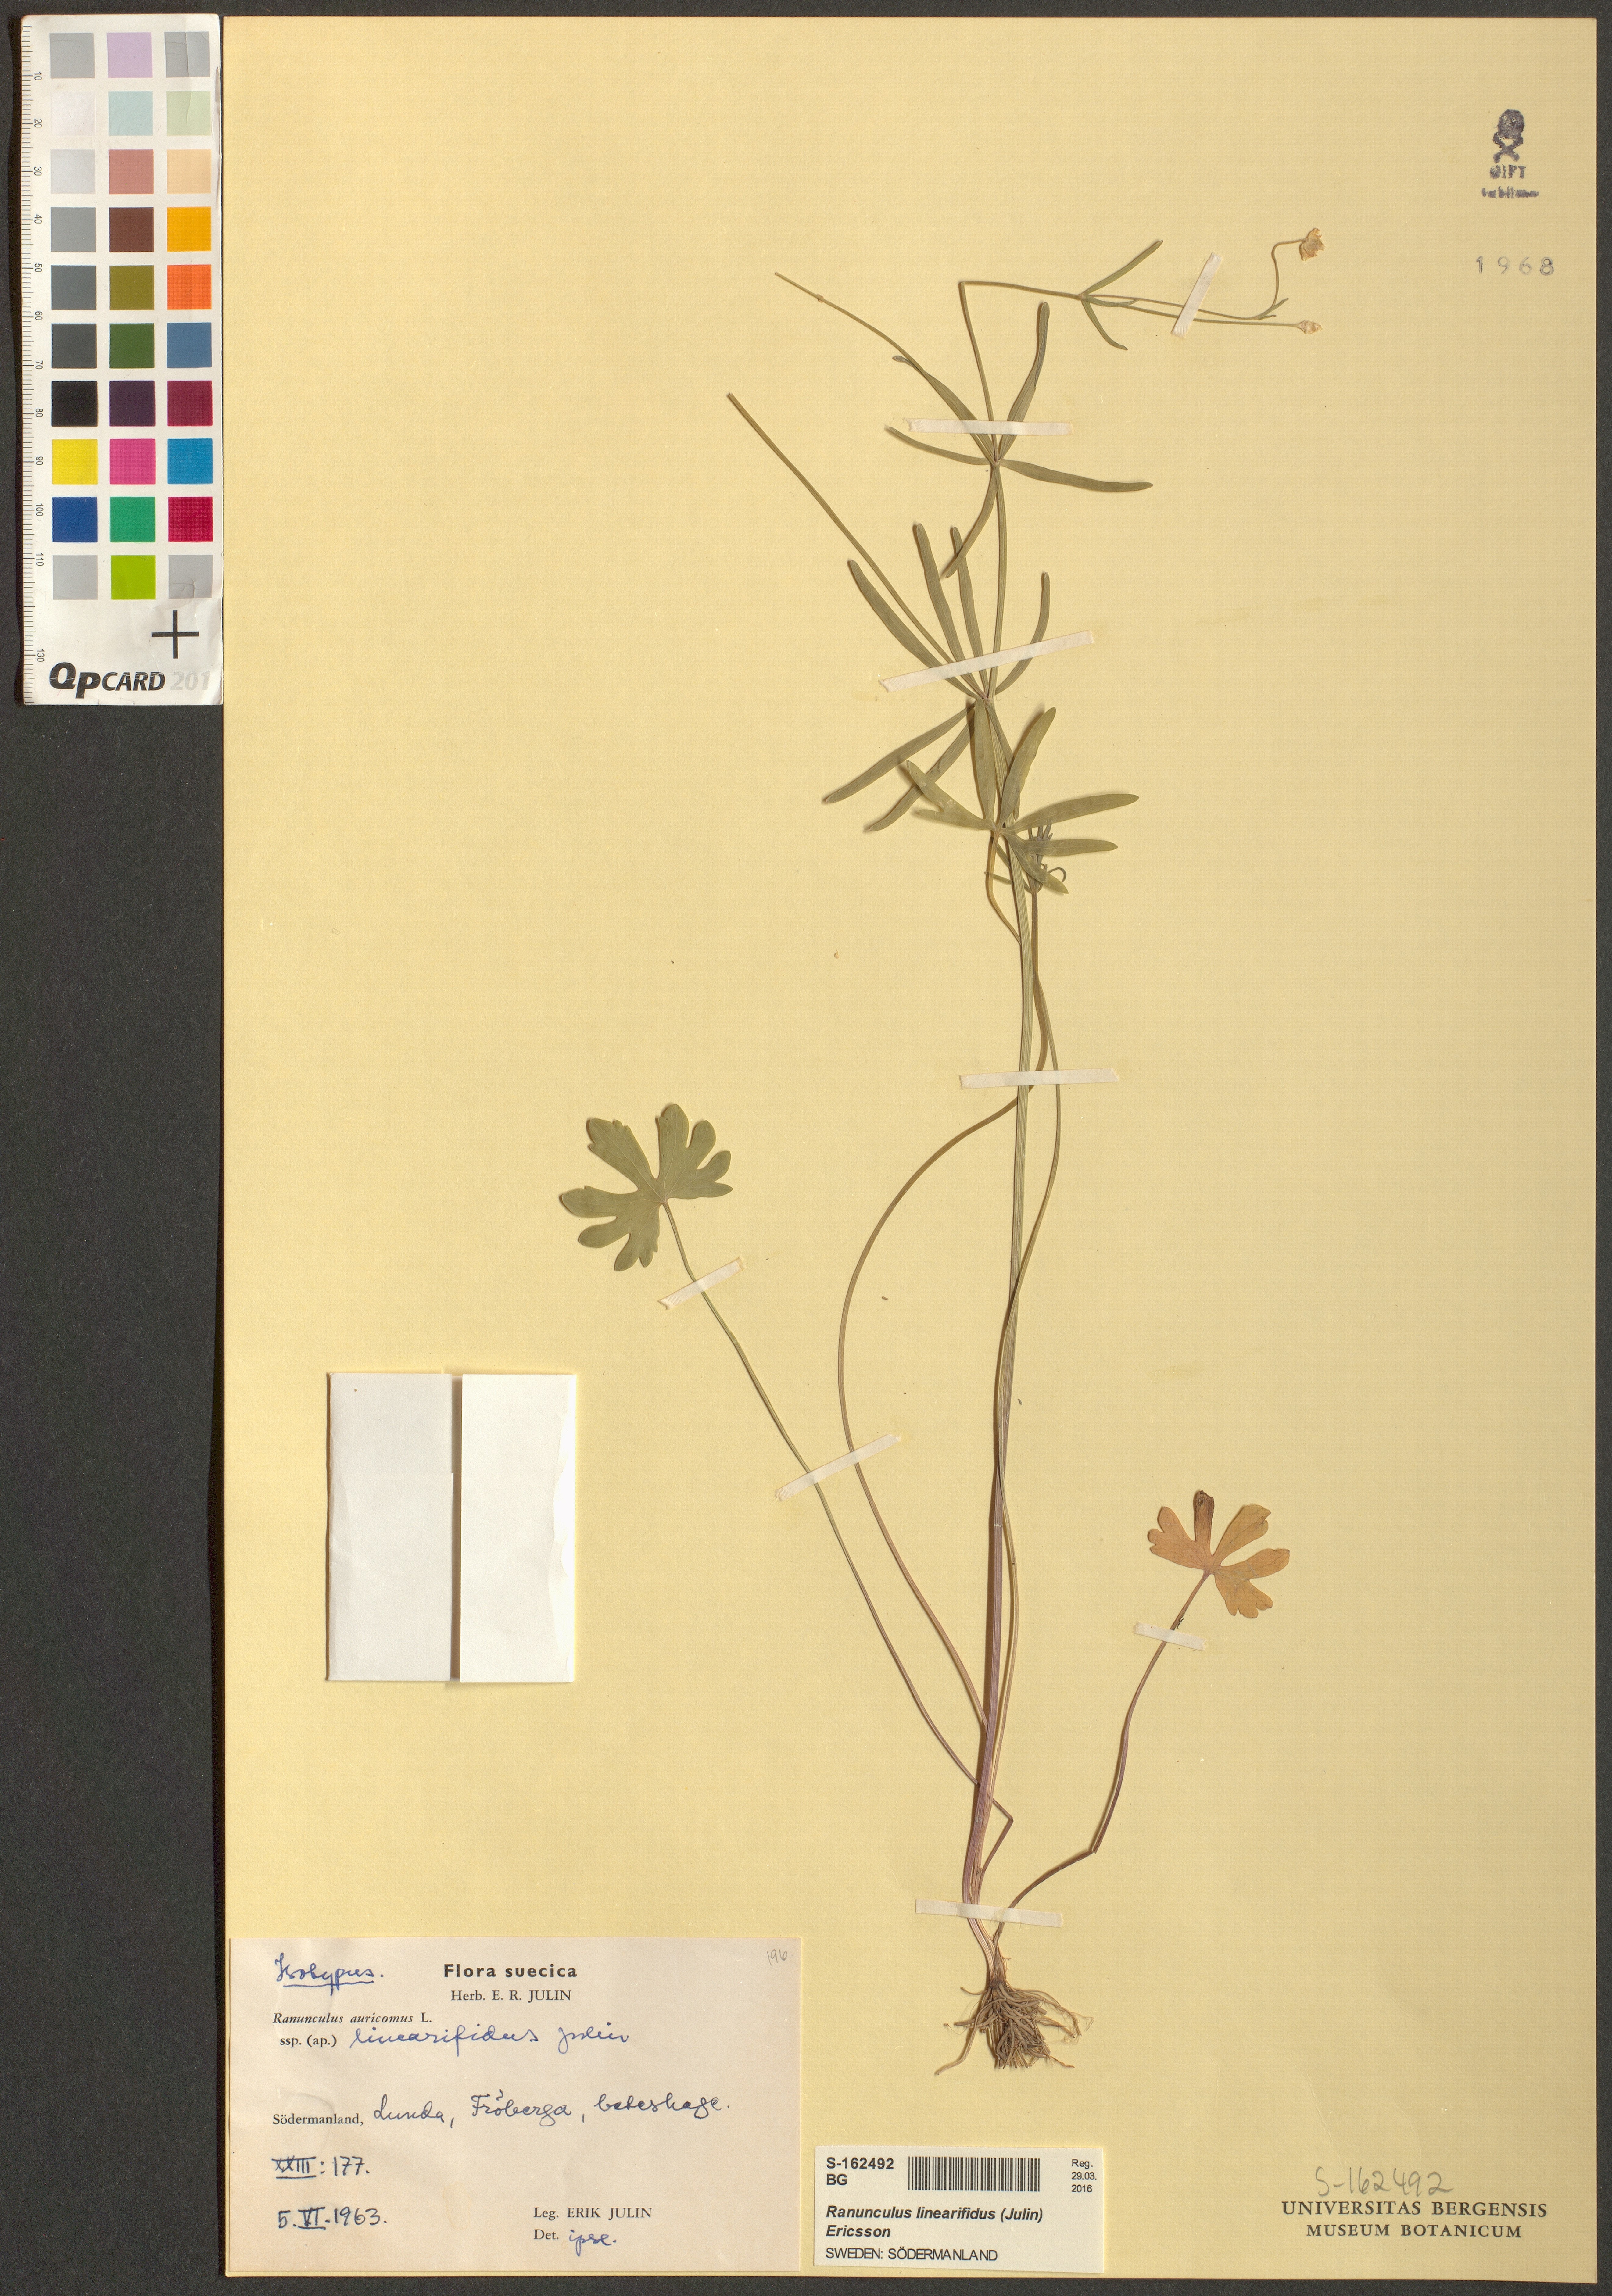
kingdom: Plantae
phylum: Tracheophyta
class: Magnoliopsida
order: Ranunculales
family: Ranunculaceae
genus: Ranunculus
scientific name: Ranunculus linearifidus
